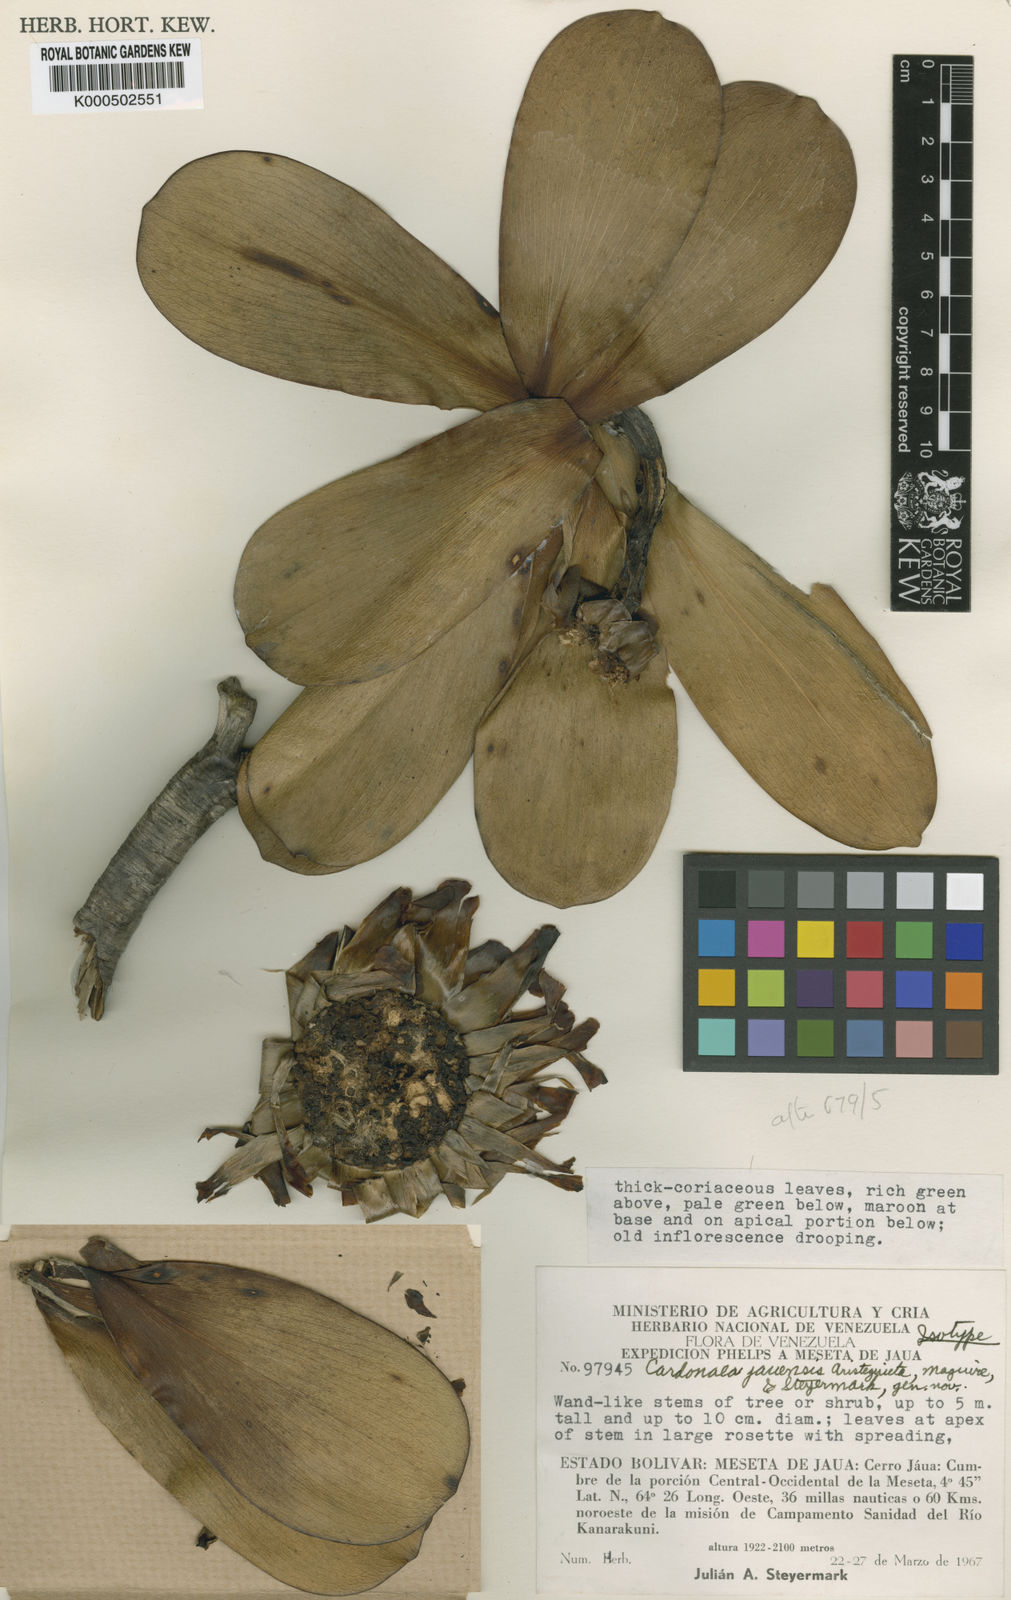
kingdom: Plantae
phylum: Tracheophyta
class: Magnoliopsida
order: Asterales
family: Asteraceae
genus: Gongylolepis
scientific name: Gongylolepis jauaensis
